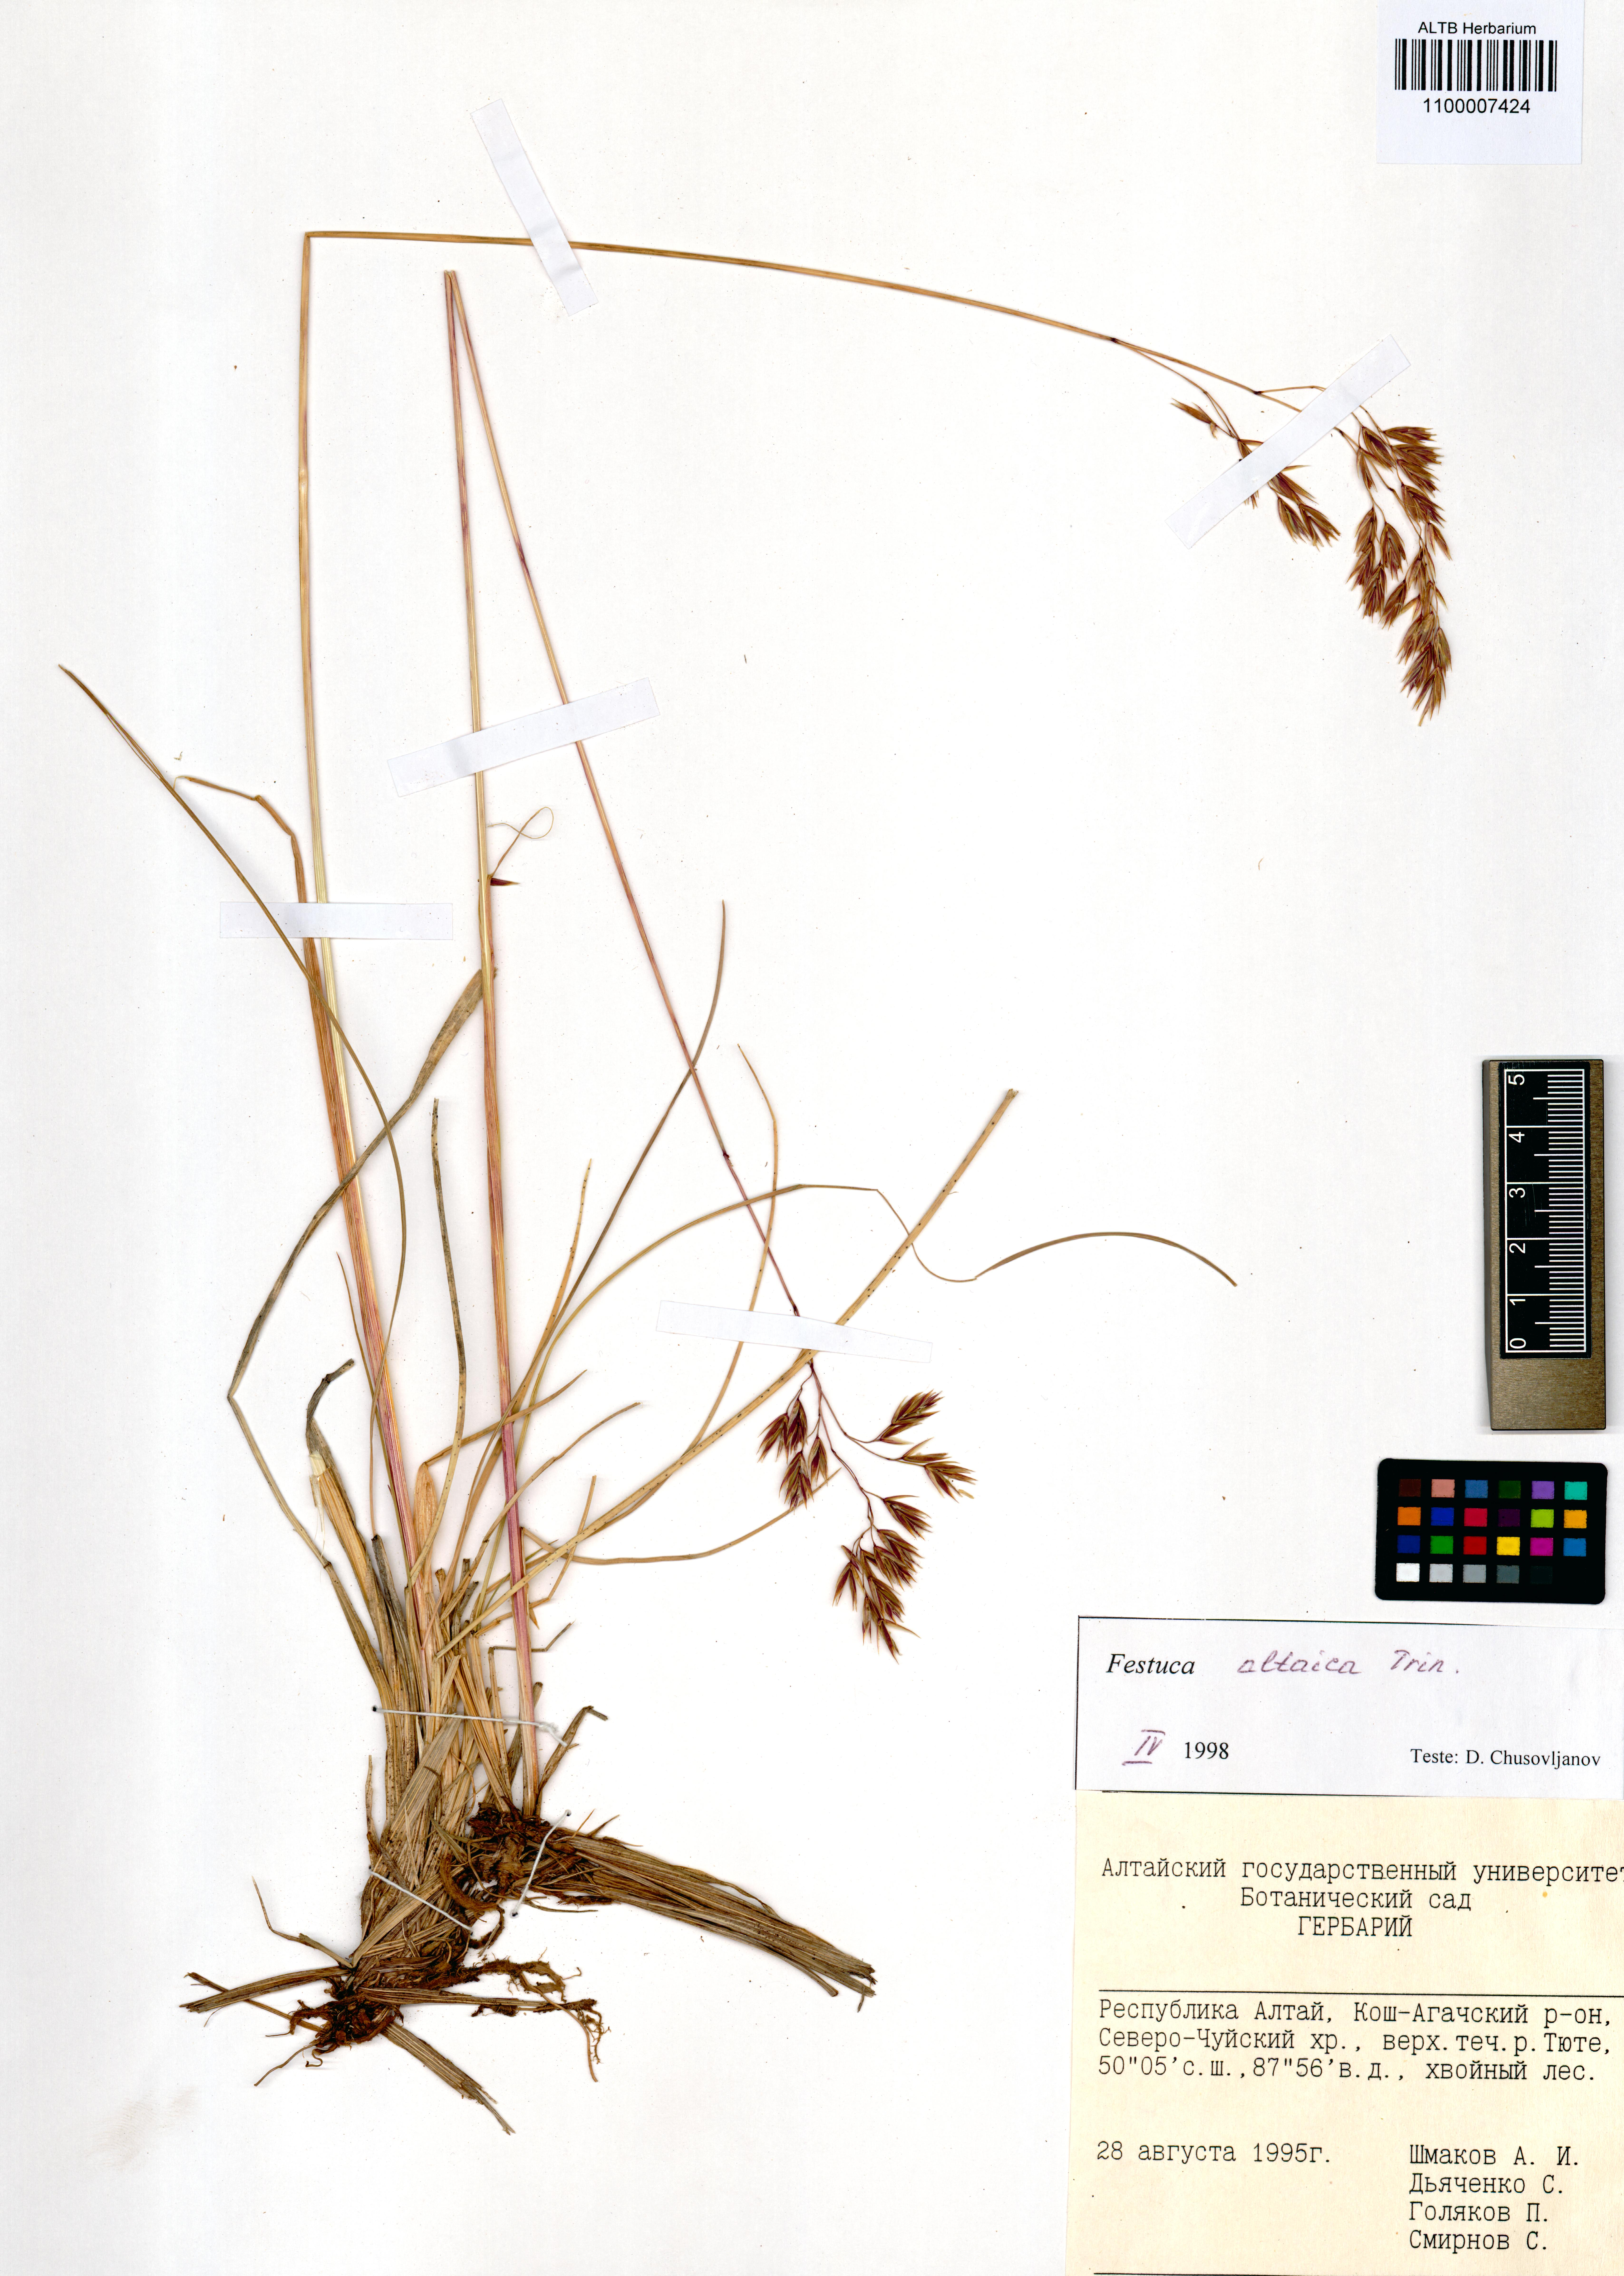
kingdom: Plantae
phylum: Tracheophyta
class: Liliopsida
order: Poales
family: Poaceae
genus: Festuca
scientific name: Festuca altaica
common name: Northern rough fescue
